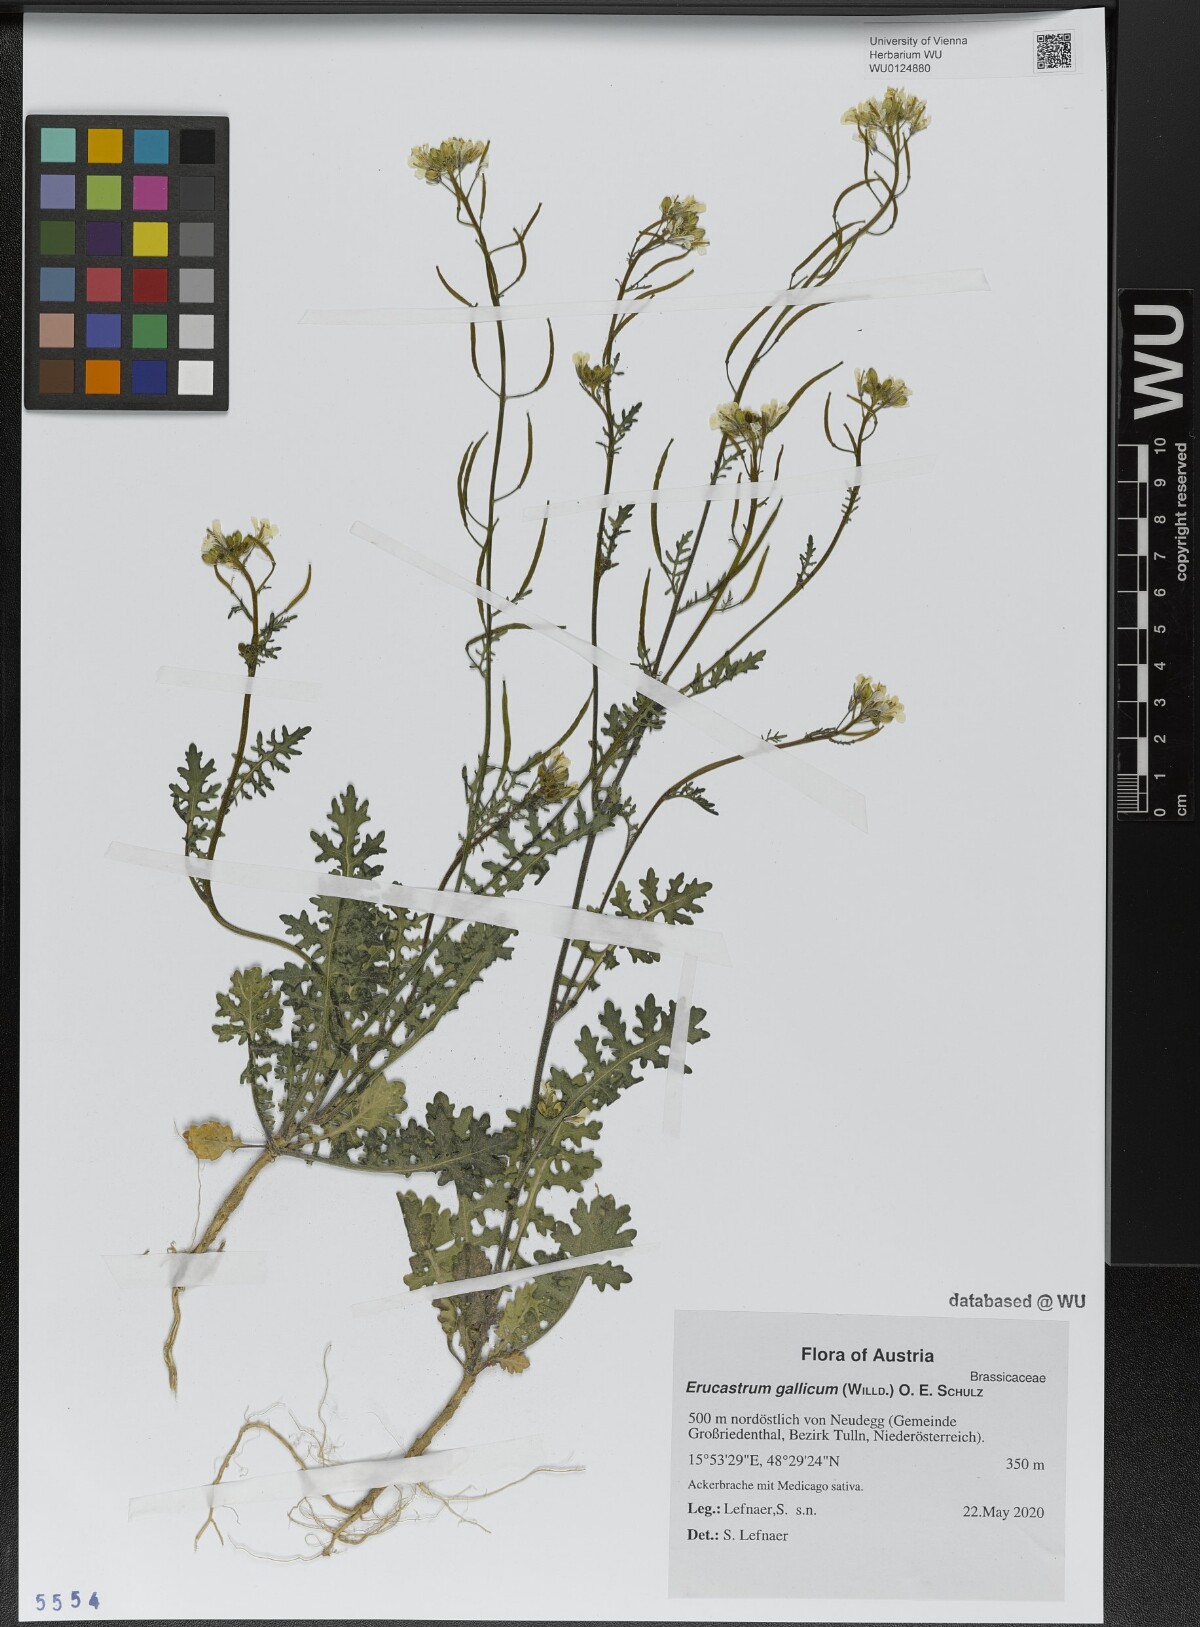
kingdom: Plantae
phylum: Tracheophyta
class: Magnoliopsida
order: Brassicales
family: Brassicaceae
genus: Erucastrum
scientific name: Erucastrum gallicum
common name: Hairy rocket
